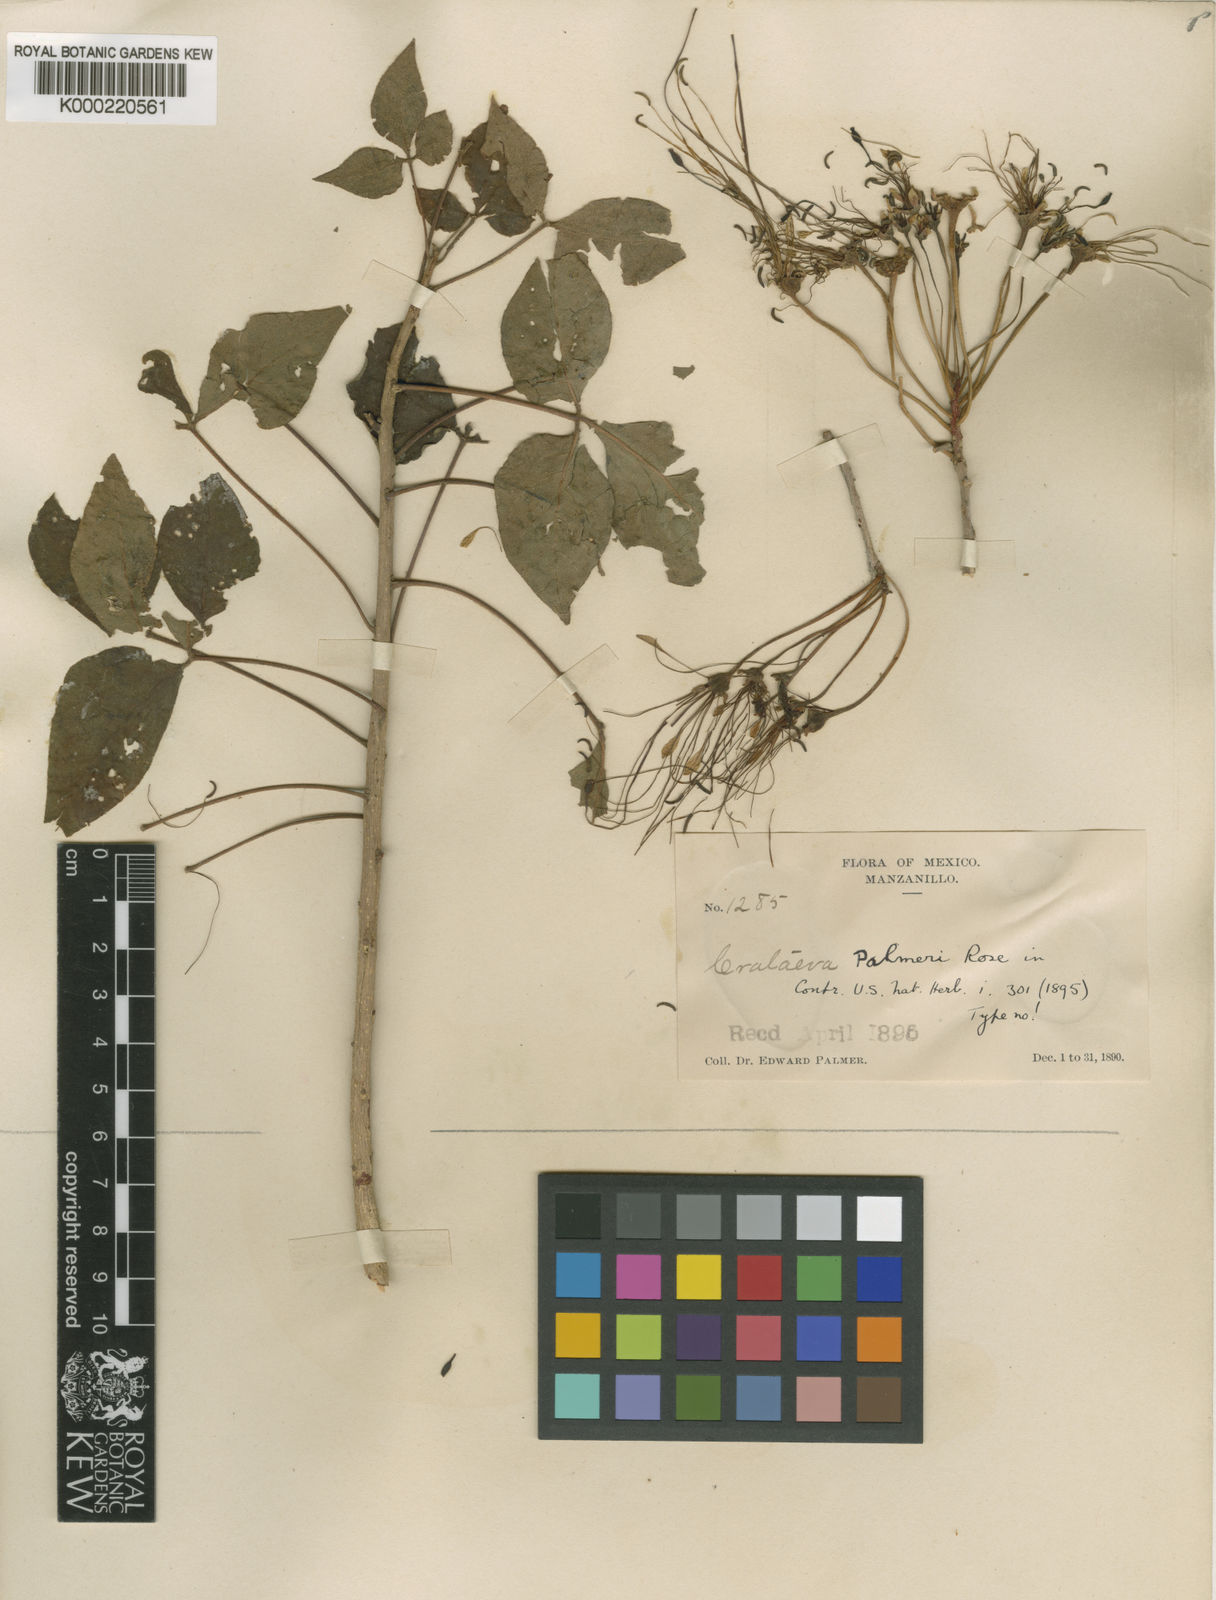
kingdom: Plantae
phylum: Tracheophyta
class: Magnoliopsida
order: Brassicales
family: Capparaceae
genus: Crateva
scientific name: Crateva palmeri
